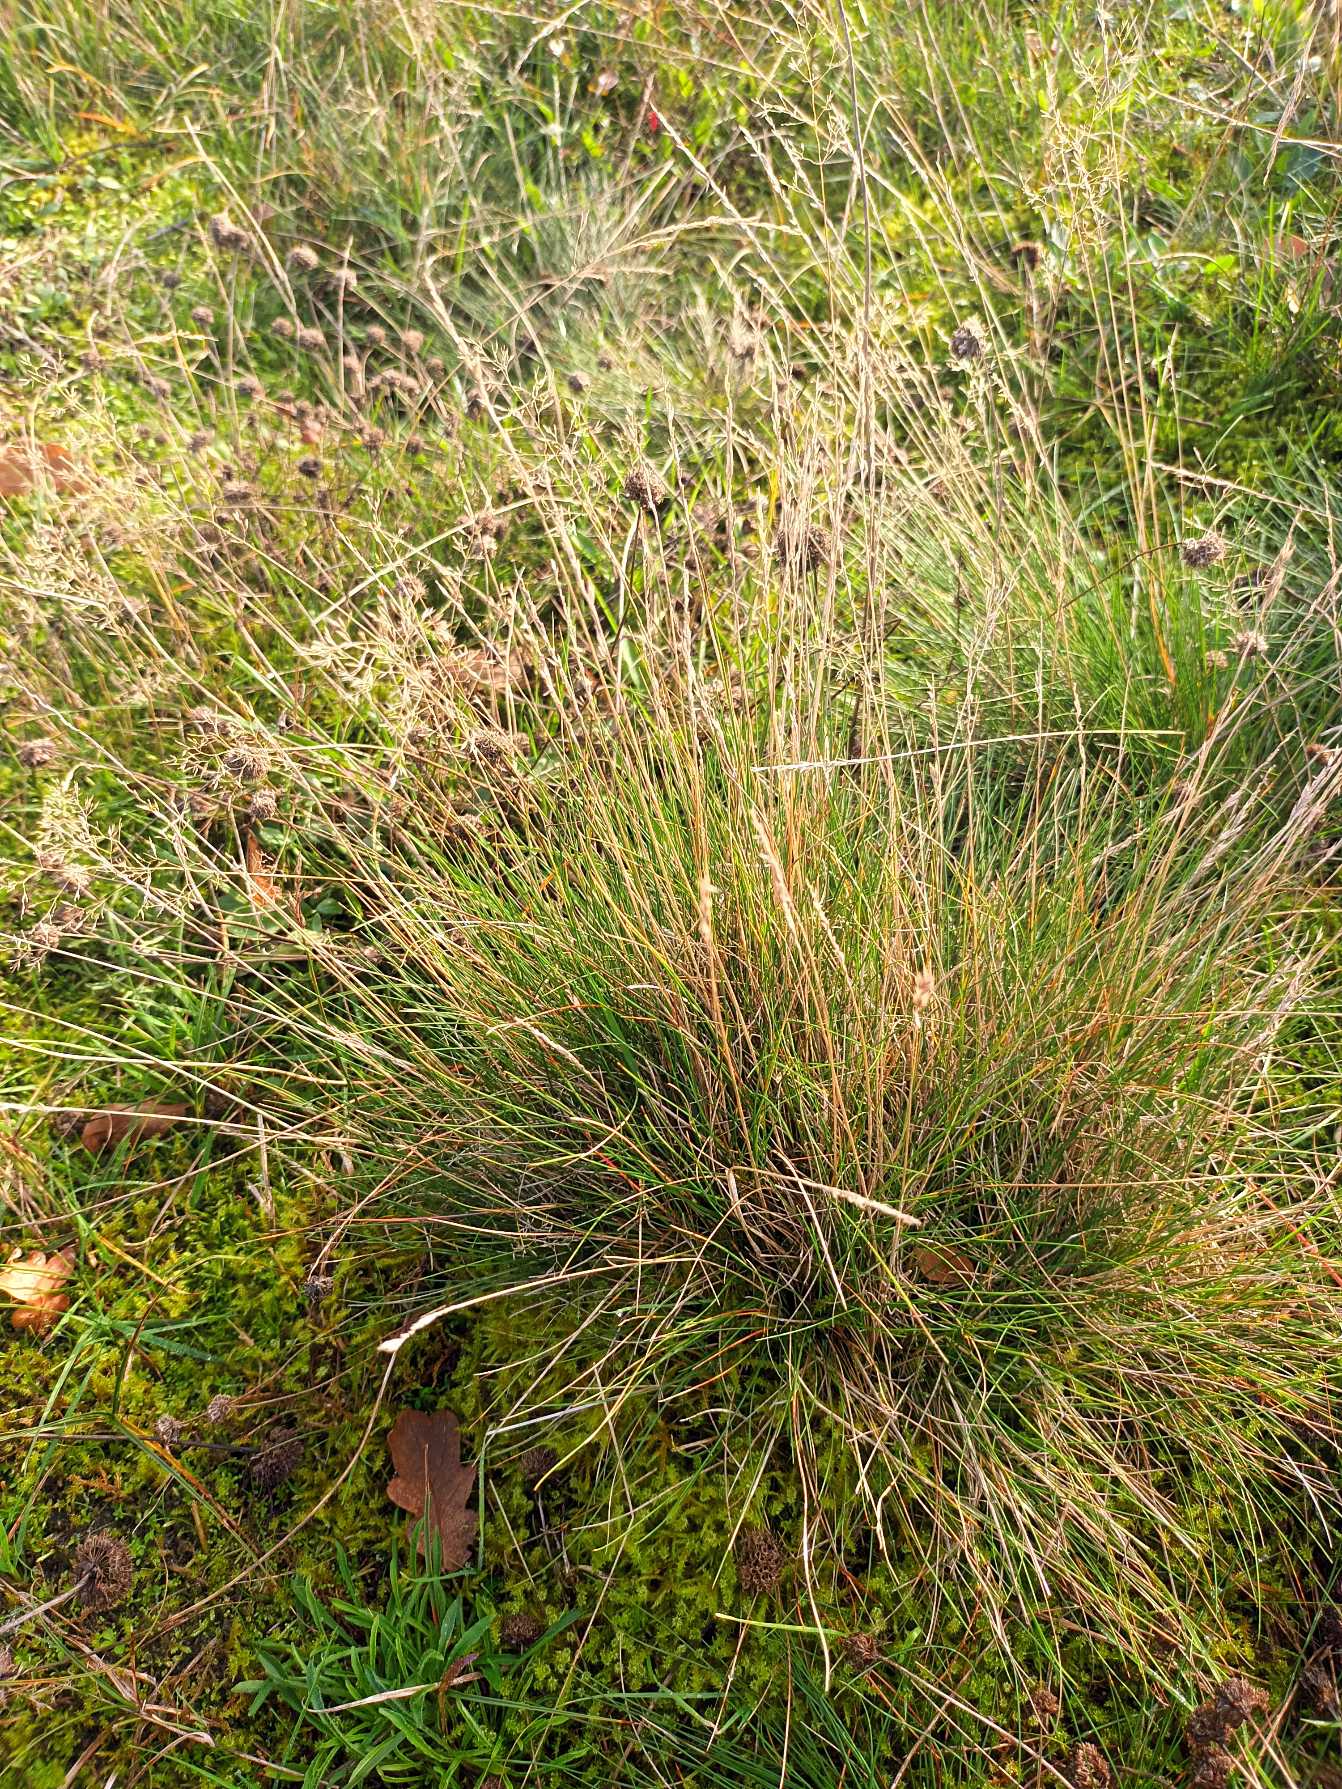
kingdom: Plantae
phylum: Tracheophyta
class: Liliopsida
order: Poales
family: Poaceae
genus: Festuca
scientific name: Festuca ovina
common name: Fåre-svingel
